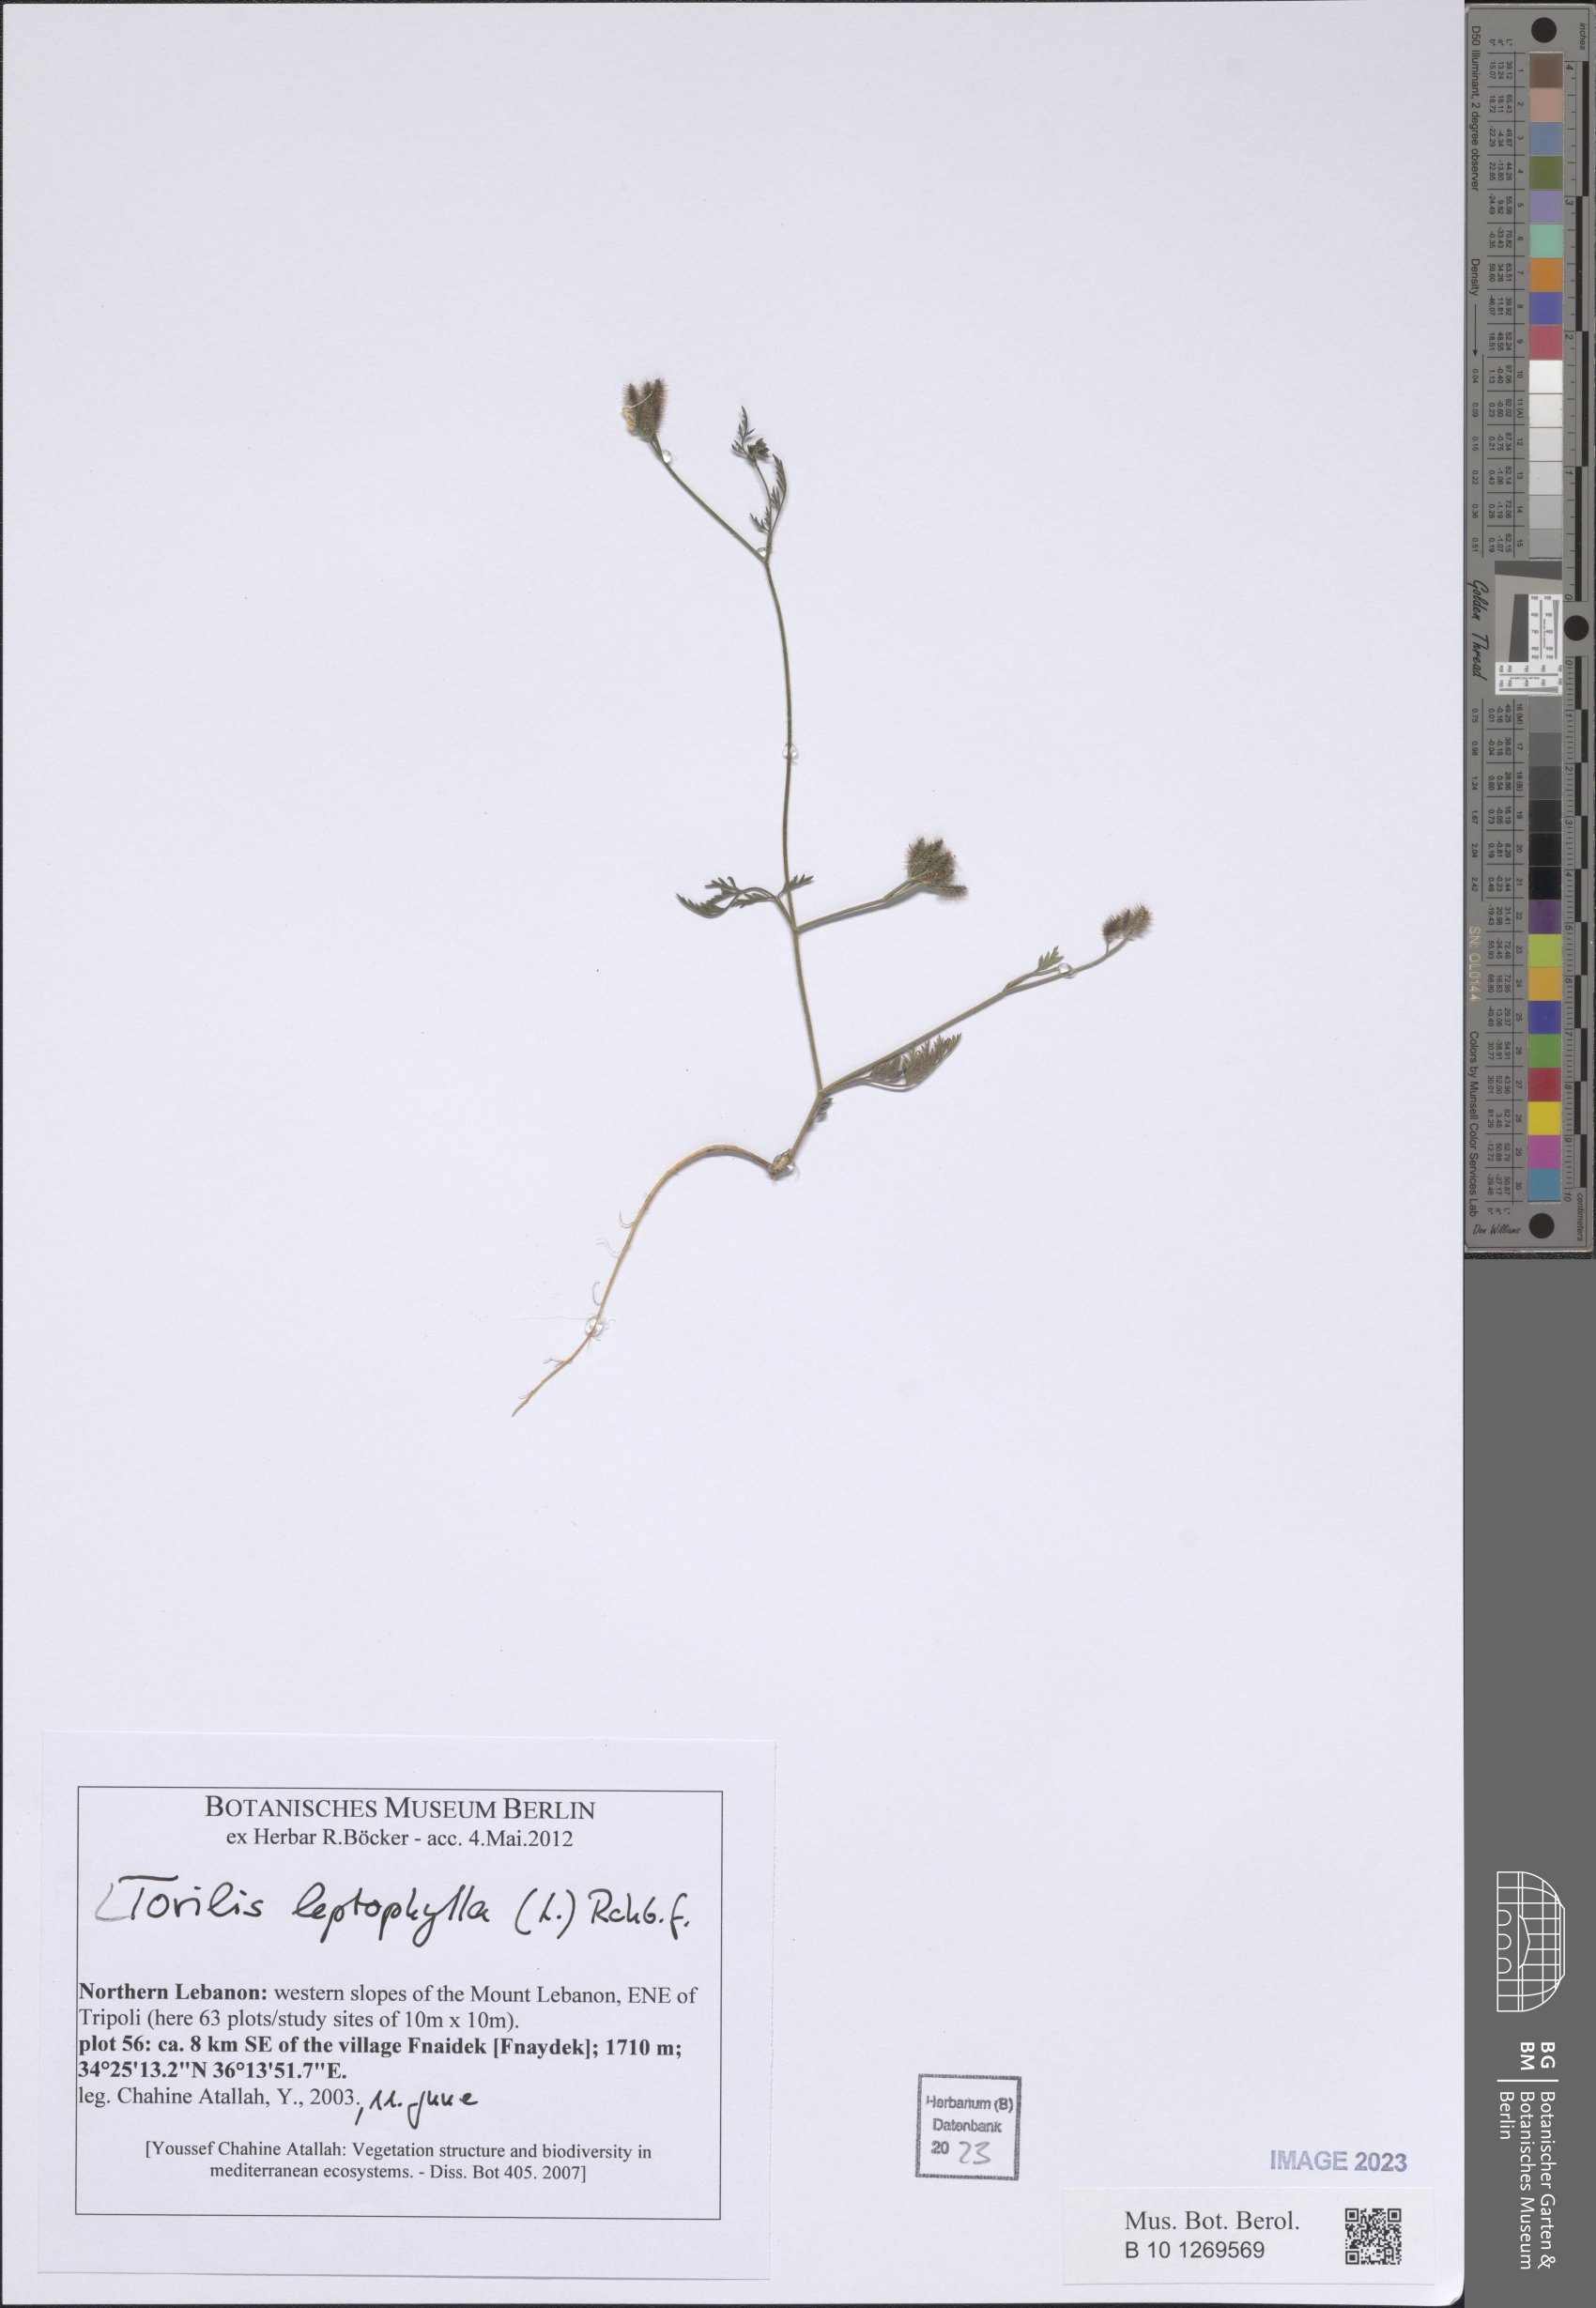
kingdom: Plantae
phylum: Tracheophyta
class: Magnoliopsida
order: Apiales
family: Apiaceae
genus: Torilis
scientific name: Torilis leptophylla
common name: Bristlefruit hedgeparsley
